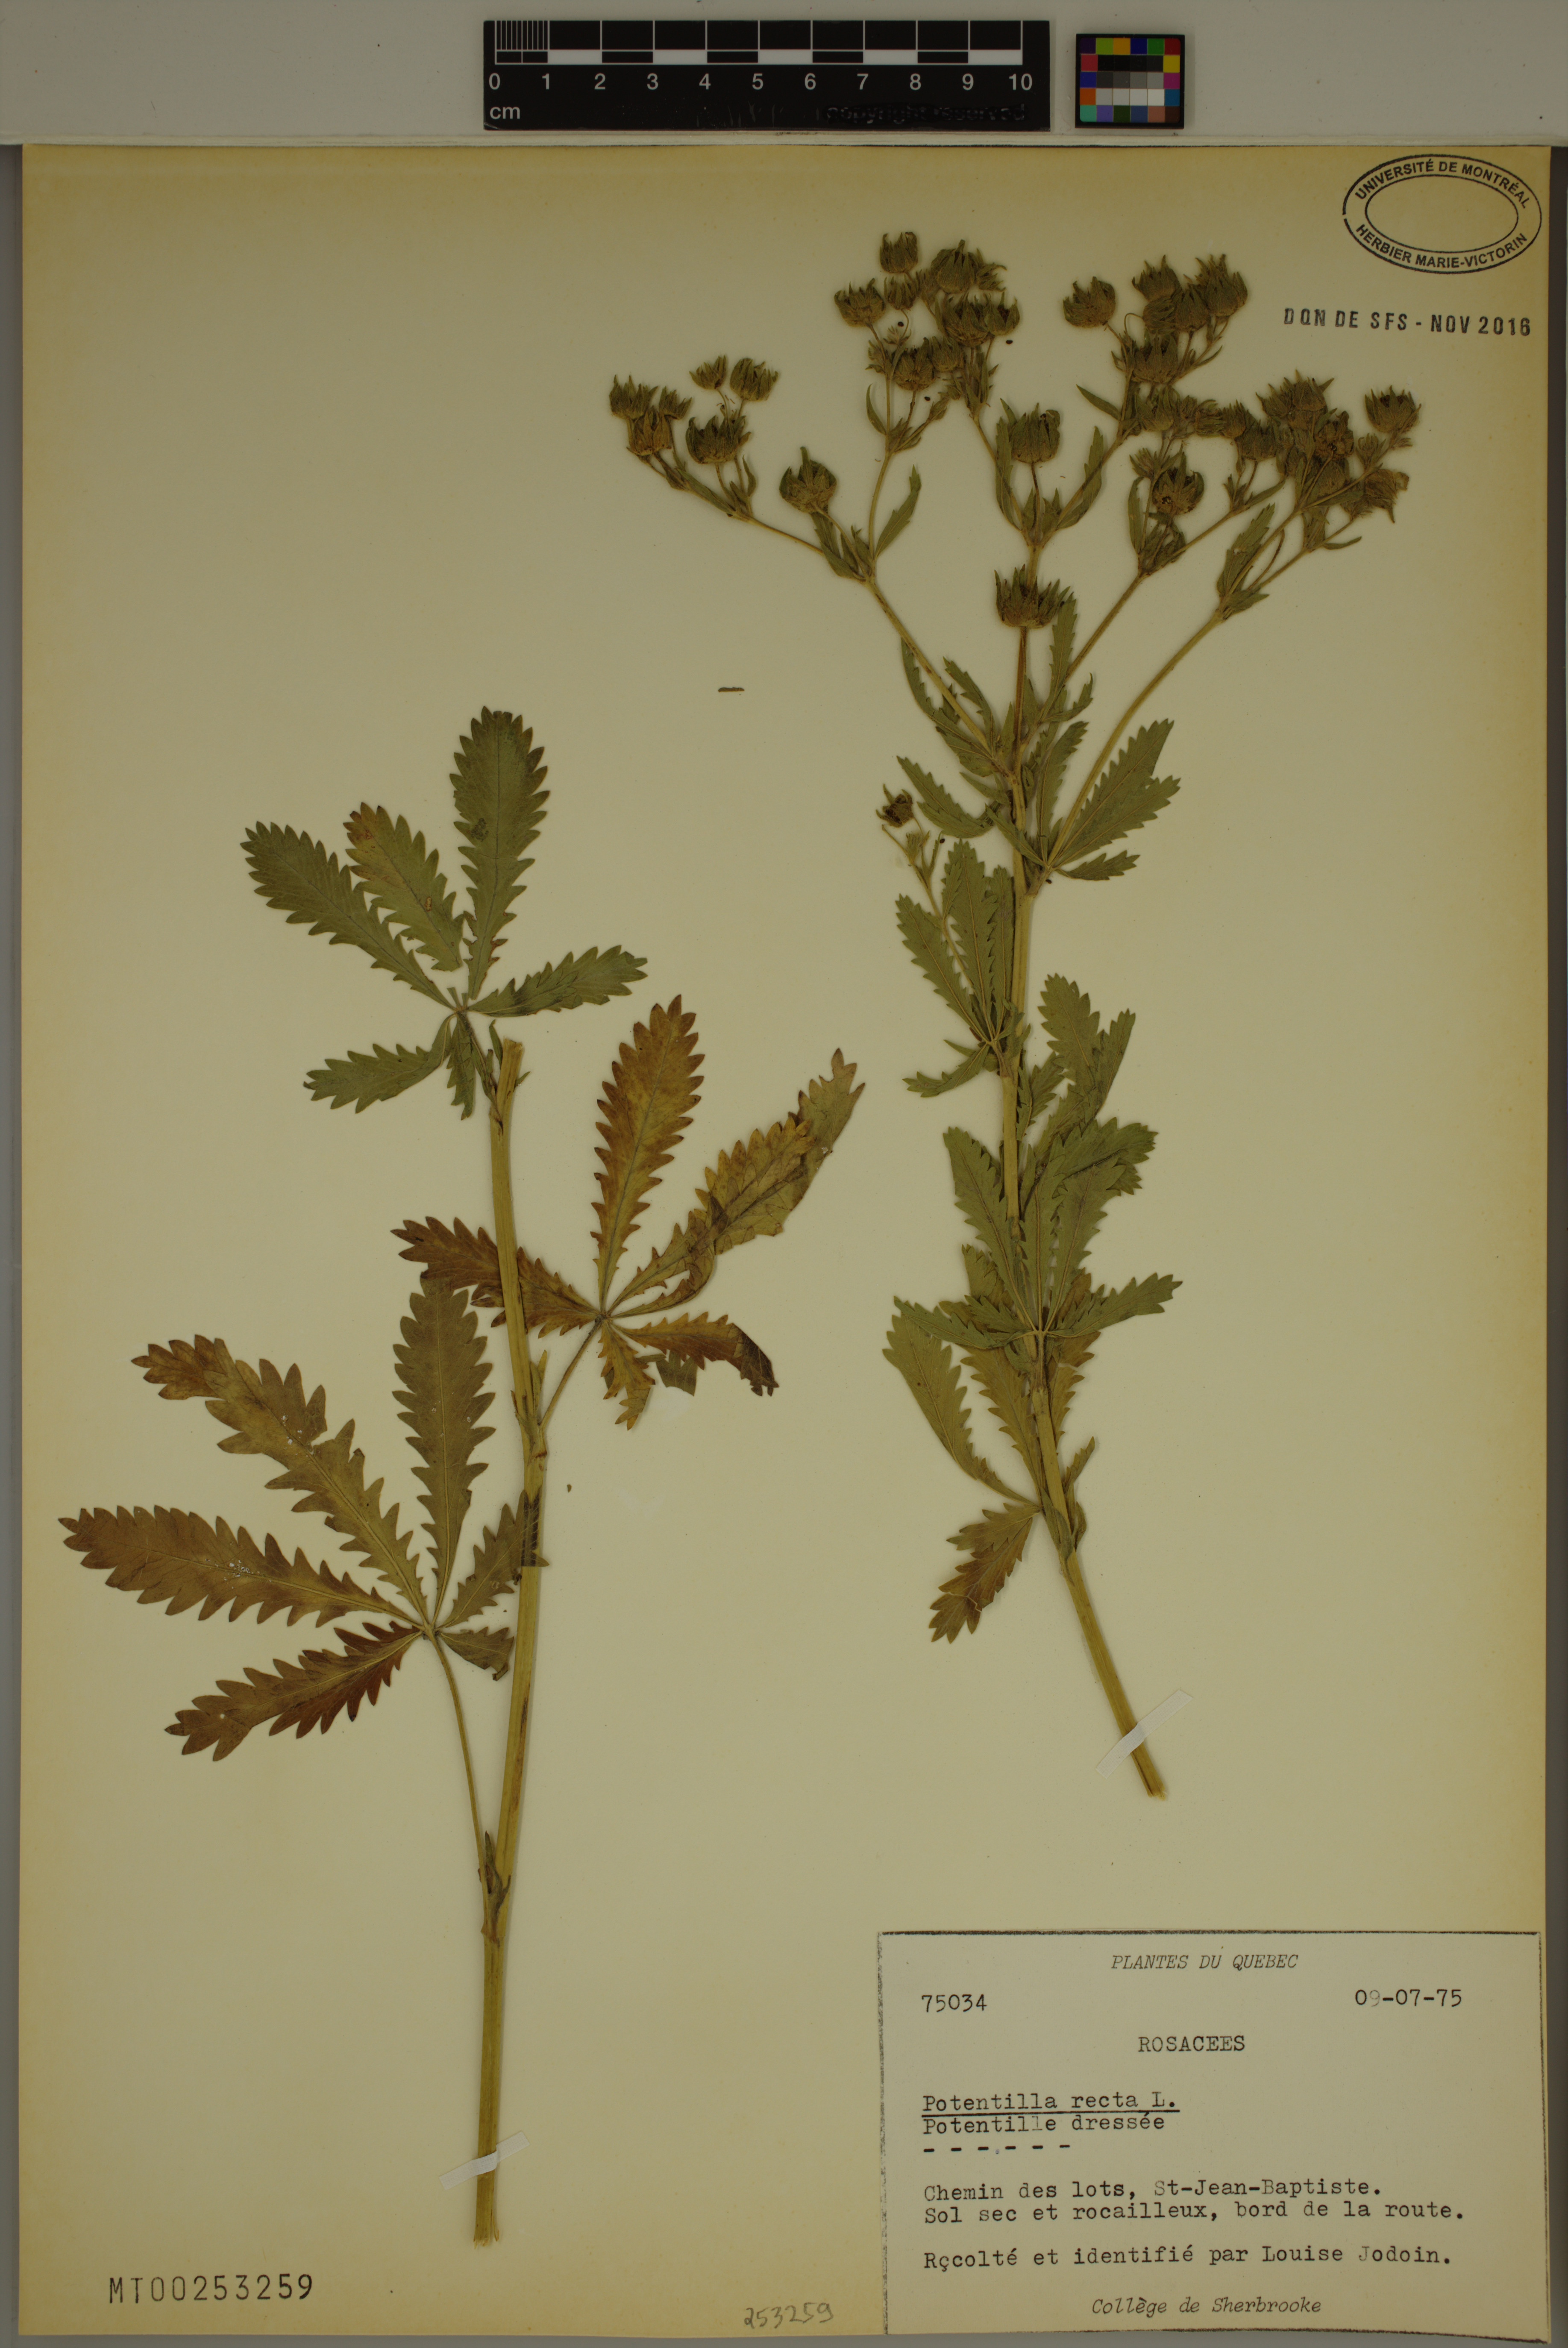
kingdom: Plantae
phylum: Tracheophyta
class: Magnoliopsida
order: Rosales
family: Rosaceae
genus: Potentilla
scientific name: Potentilla recta
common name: Sulphur cinquefoil
